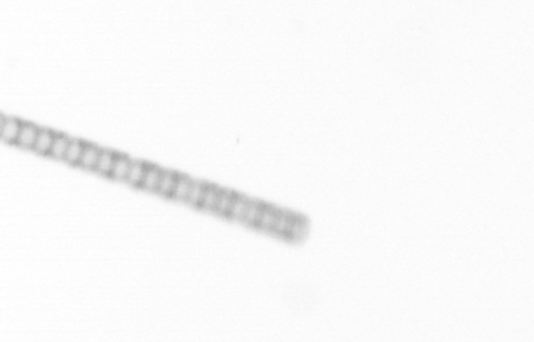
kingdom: Chromista
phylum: Ochrophyta
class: Bacillariophyceae
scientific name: Bacillariophyceae
